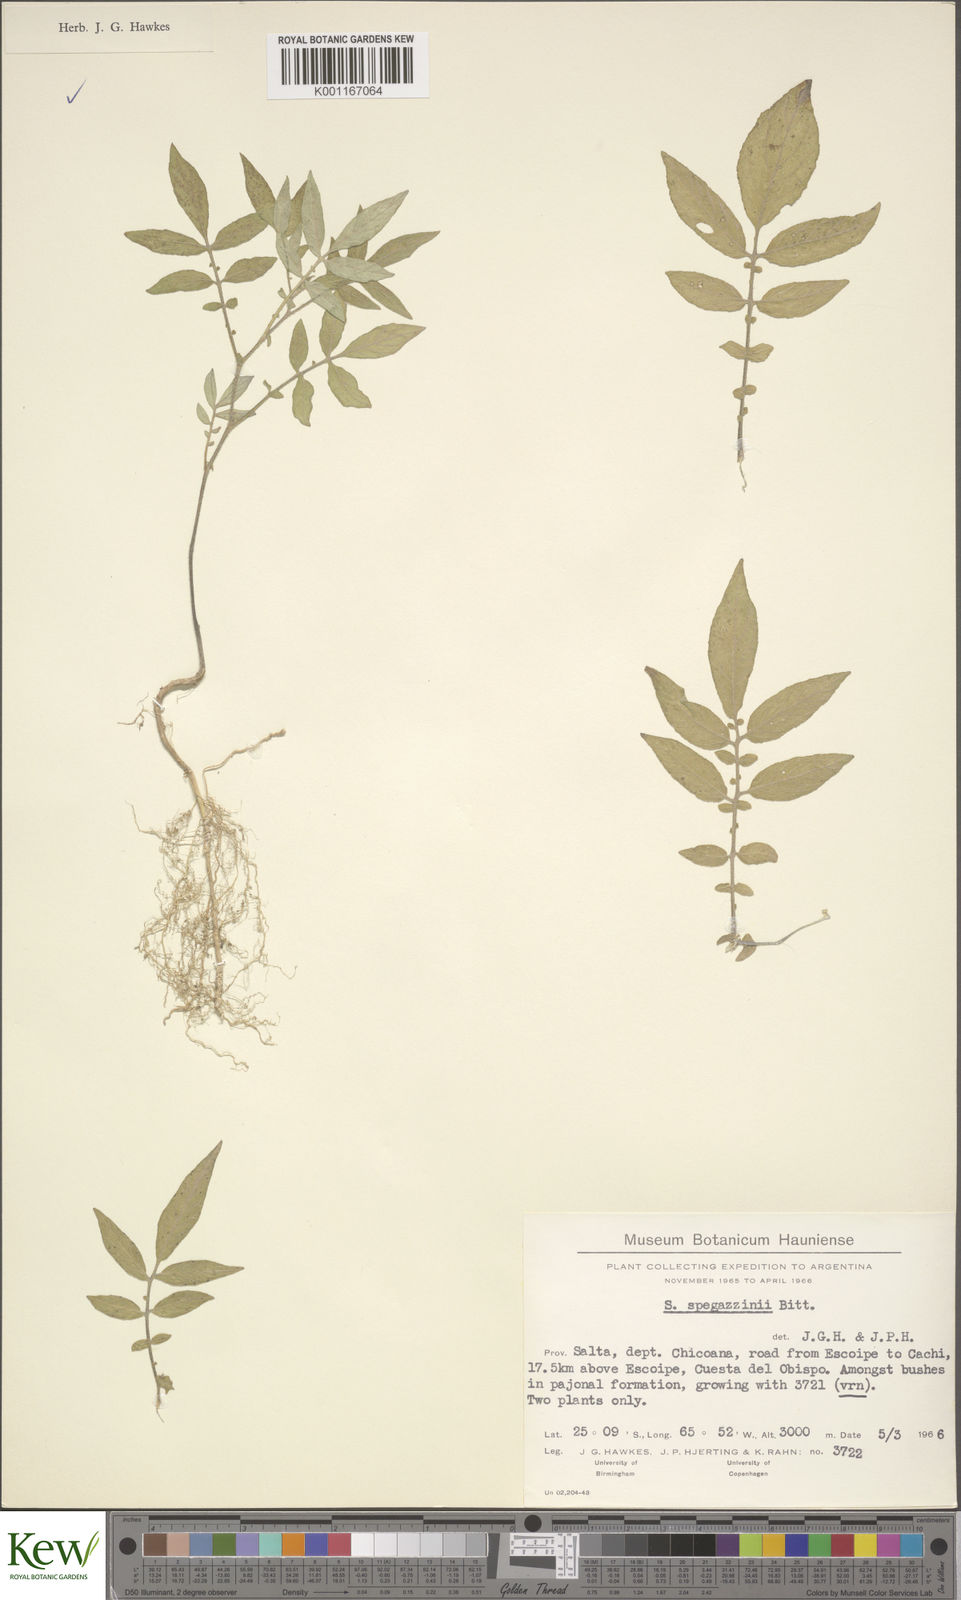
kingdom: Plantae
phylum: Tracheophyta
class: Magnoliopsida
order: Solanales
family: Solanaceae
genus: Solanum
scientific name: Solanum brevicaule
